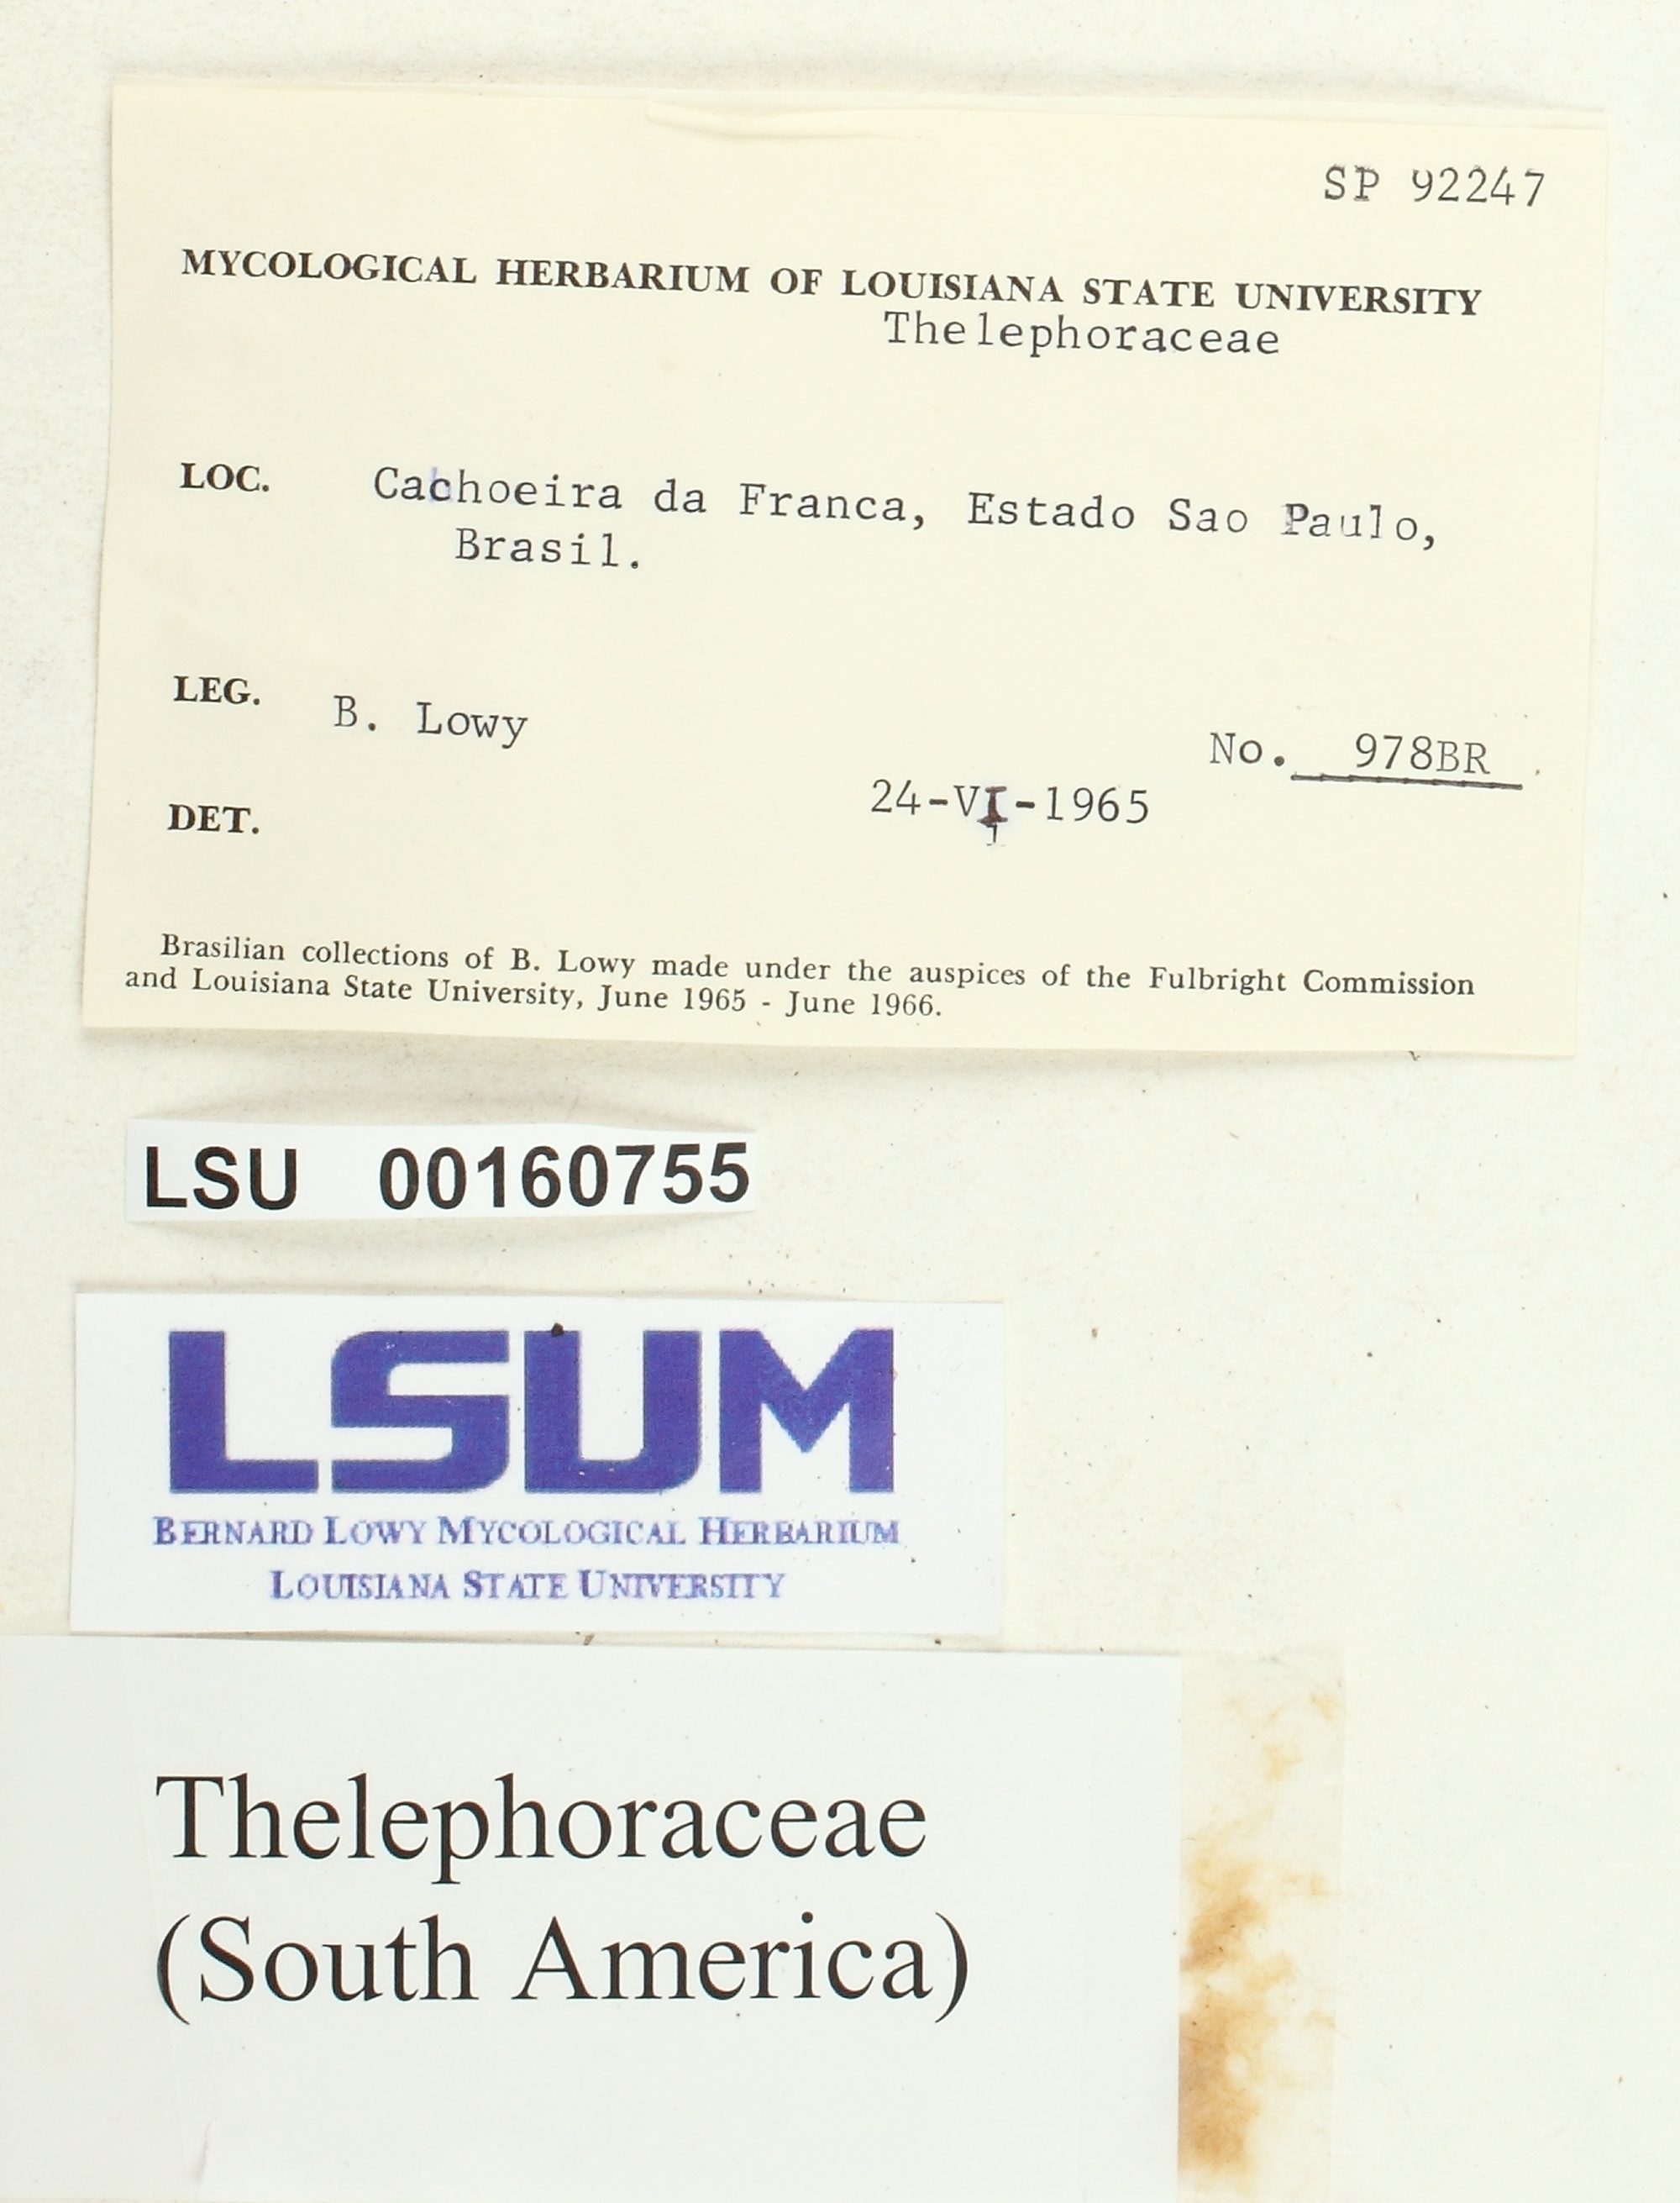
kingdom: Fungi
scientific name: Fungi
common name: Fungi
